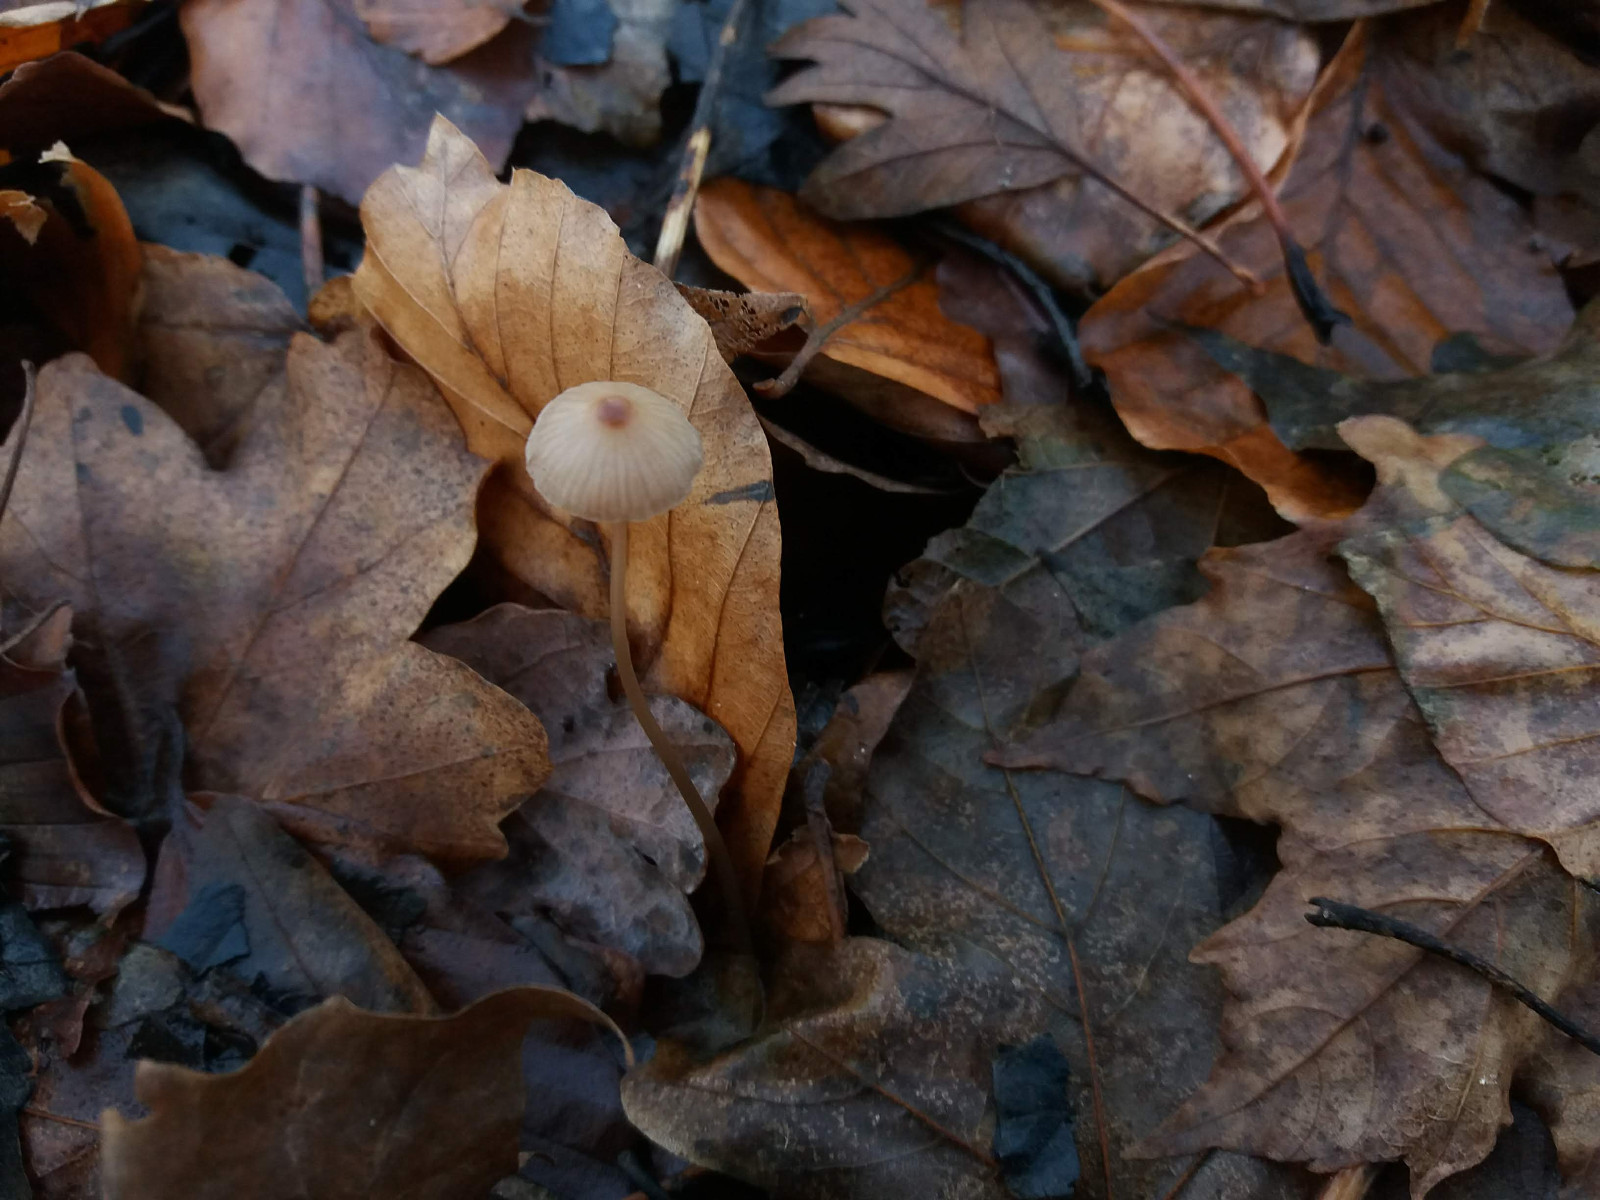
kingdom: Fungi
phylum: Basidiomycota
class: Agaricomycetes
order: Agaricales
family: Mycenaceae
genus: Mycena
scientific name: Mycena vitilis
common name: blankstokket huesvamp
